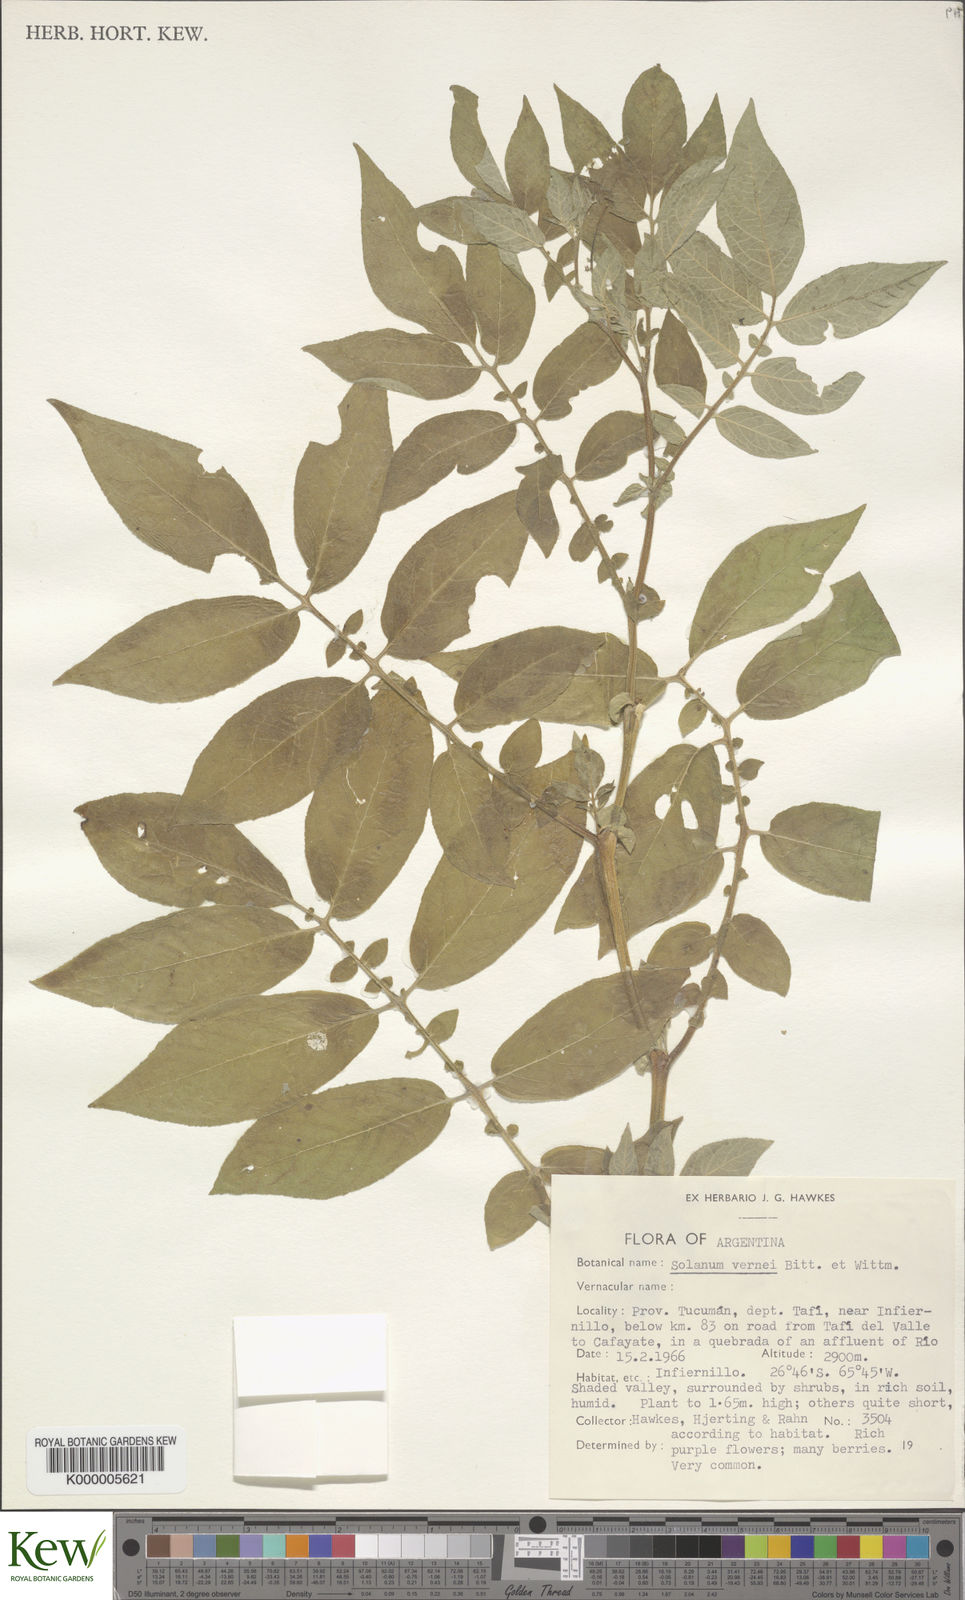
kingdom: Plantae
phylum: Tracheophyta
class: Magnoliopsida
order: Solanales
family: Solanaceae
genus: Solanum
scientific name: Solanum vernei
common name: Purple potato
